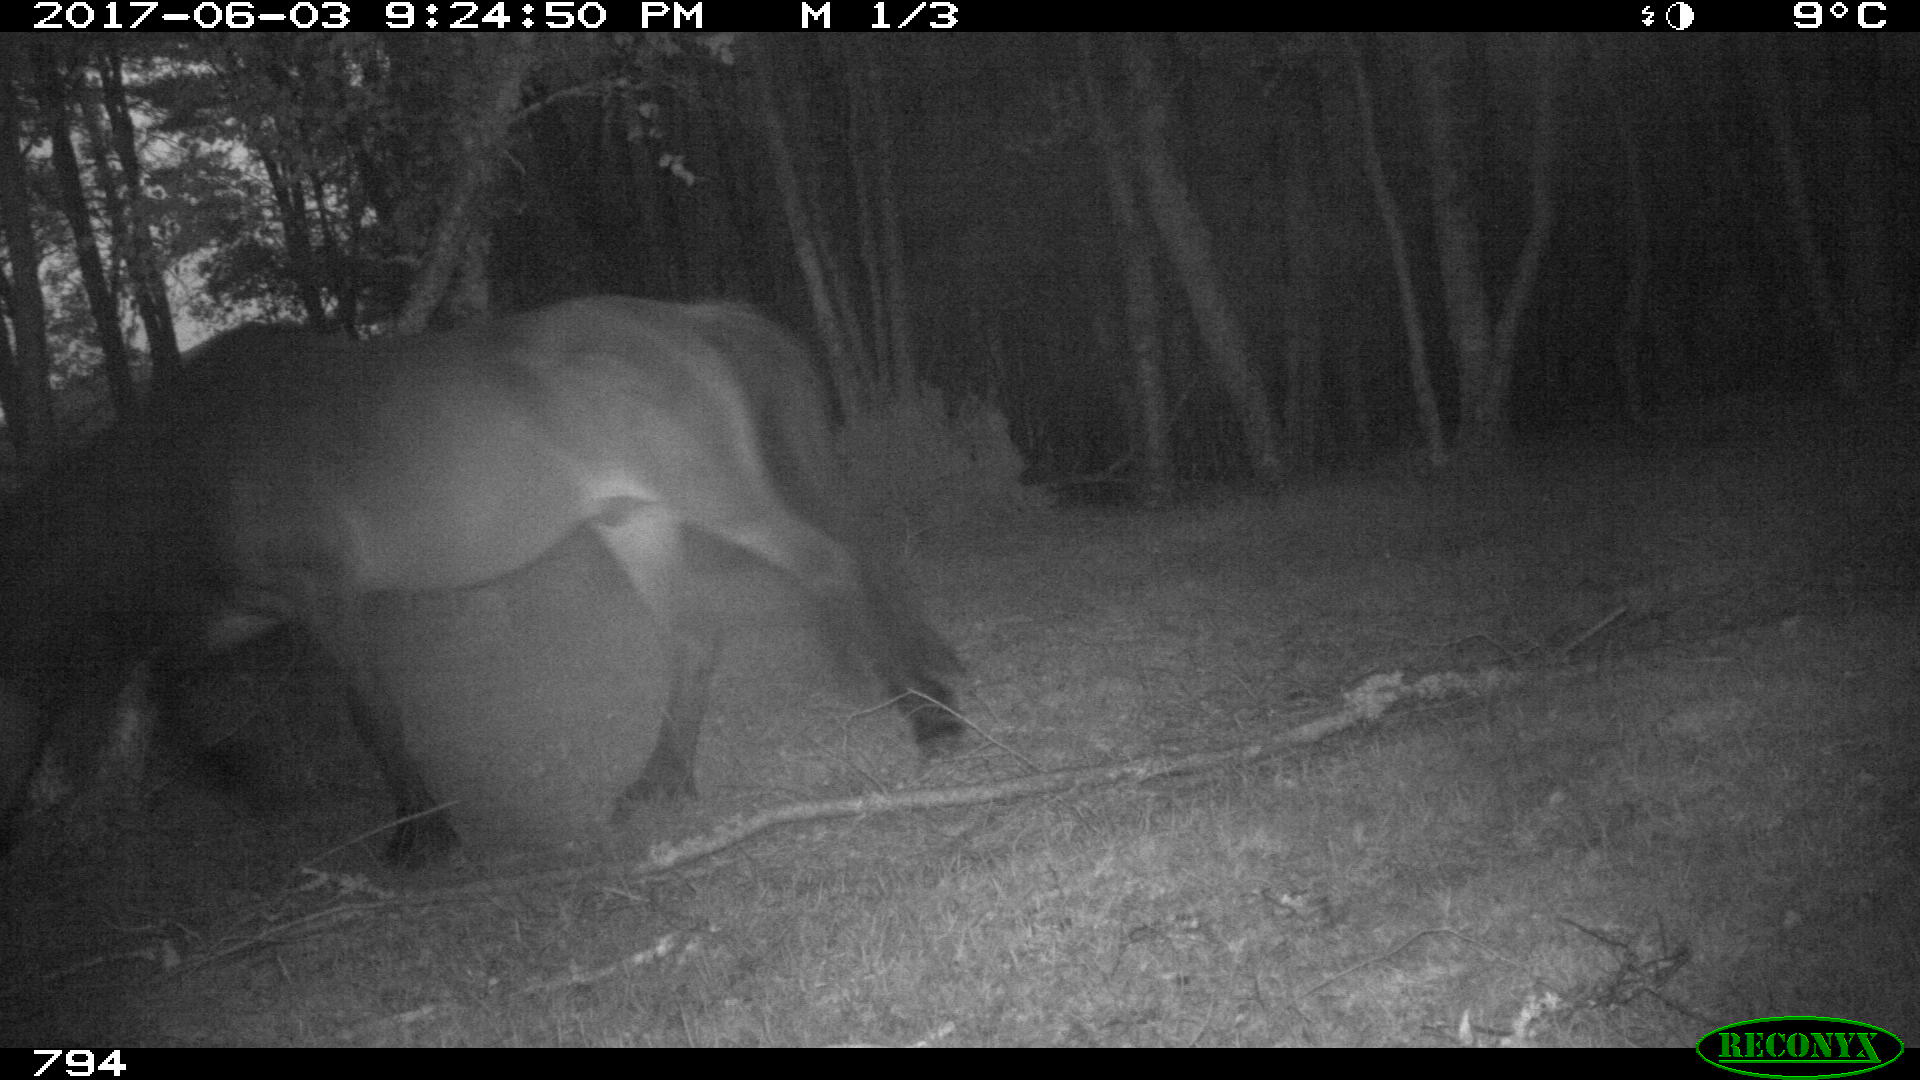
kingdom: Animalia
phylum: Chordata
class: Mammalia
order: Perissodactyla
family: Equidae
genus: Equus
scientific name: Equus caballus
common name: Horse
